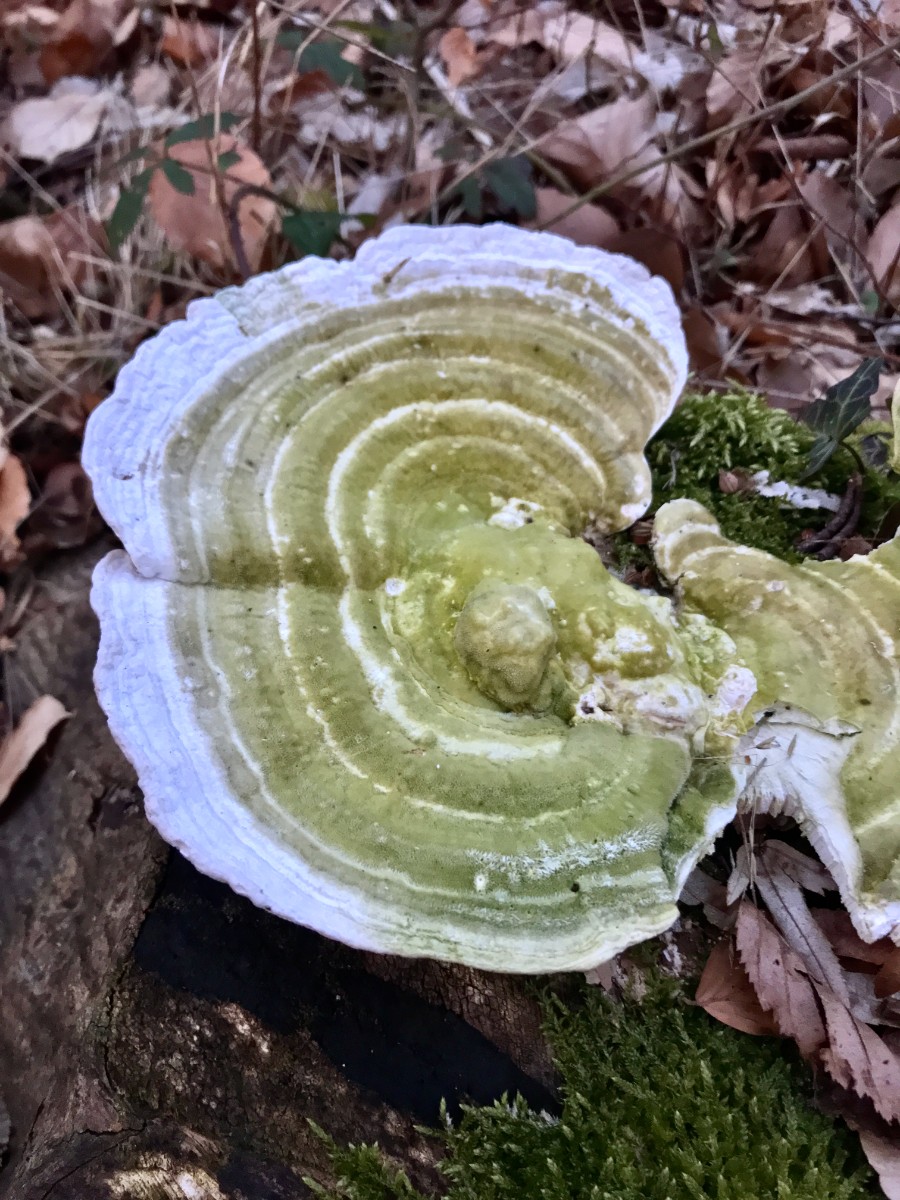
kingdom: Fungi
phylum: Basidiomycota
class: Agaricomycetes
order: Polyporales
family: Polyporaceae
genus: Trametes
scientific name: Trametes gibbosa
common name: puklet læderporesvamp
